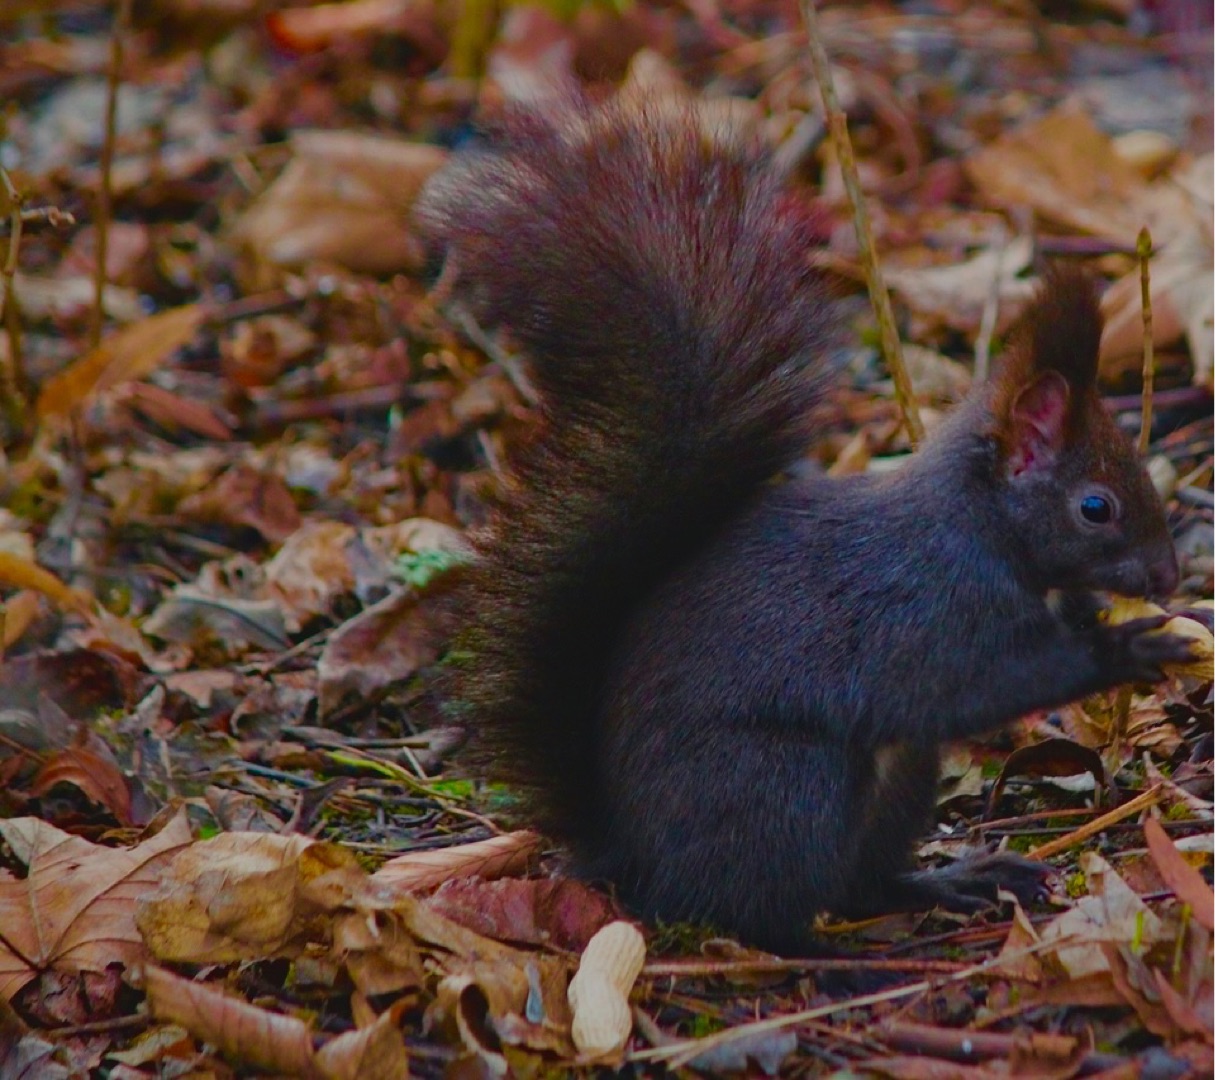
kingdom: Animalia
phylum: Chordata
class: Mammalia
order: Rodentia
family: Sciuridae
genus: Sciurus
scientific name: Sciurus vulgaris
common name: Egern
